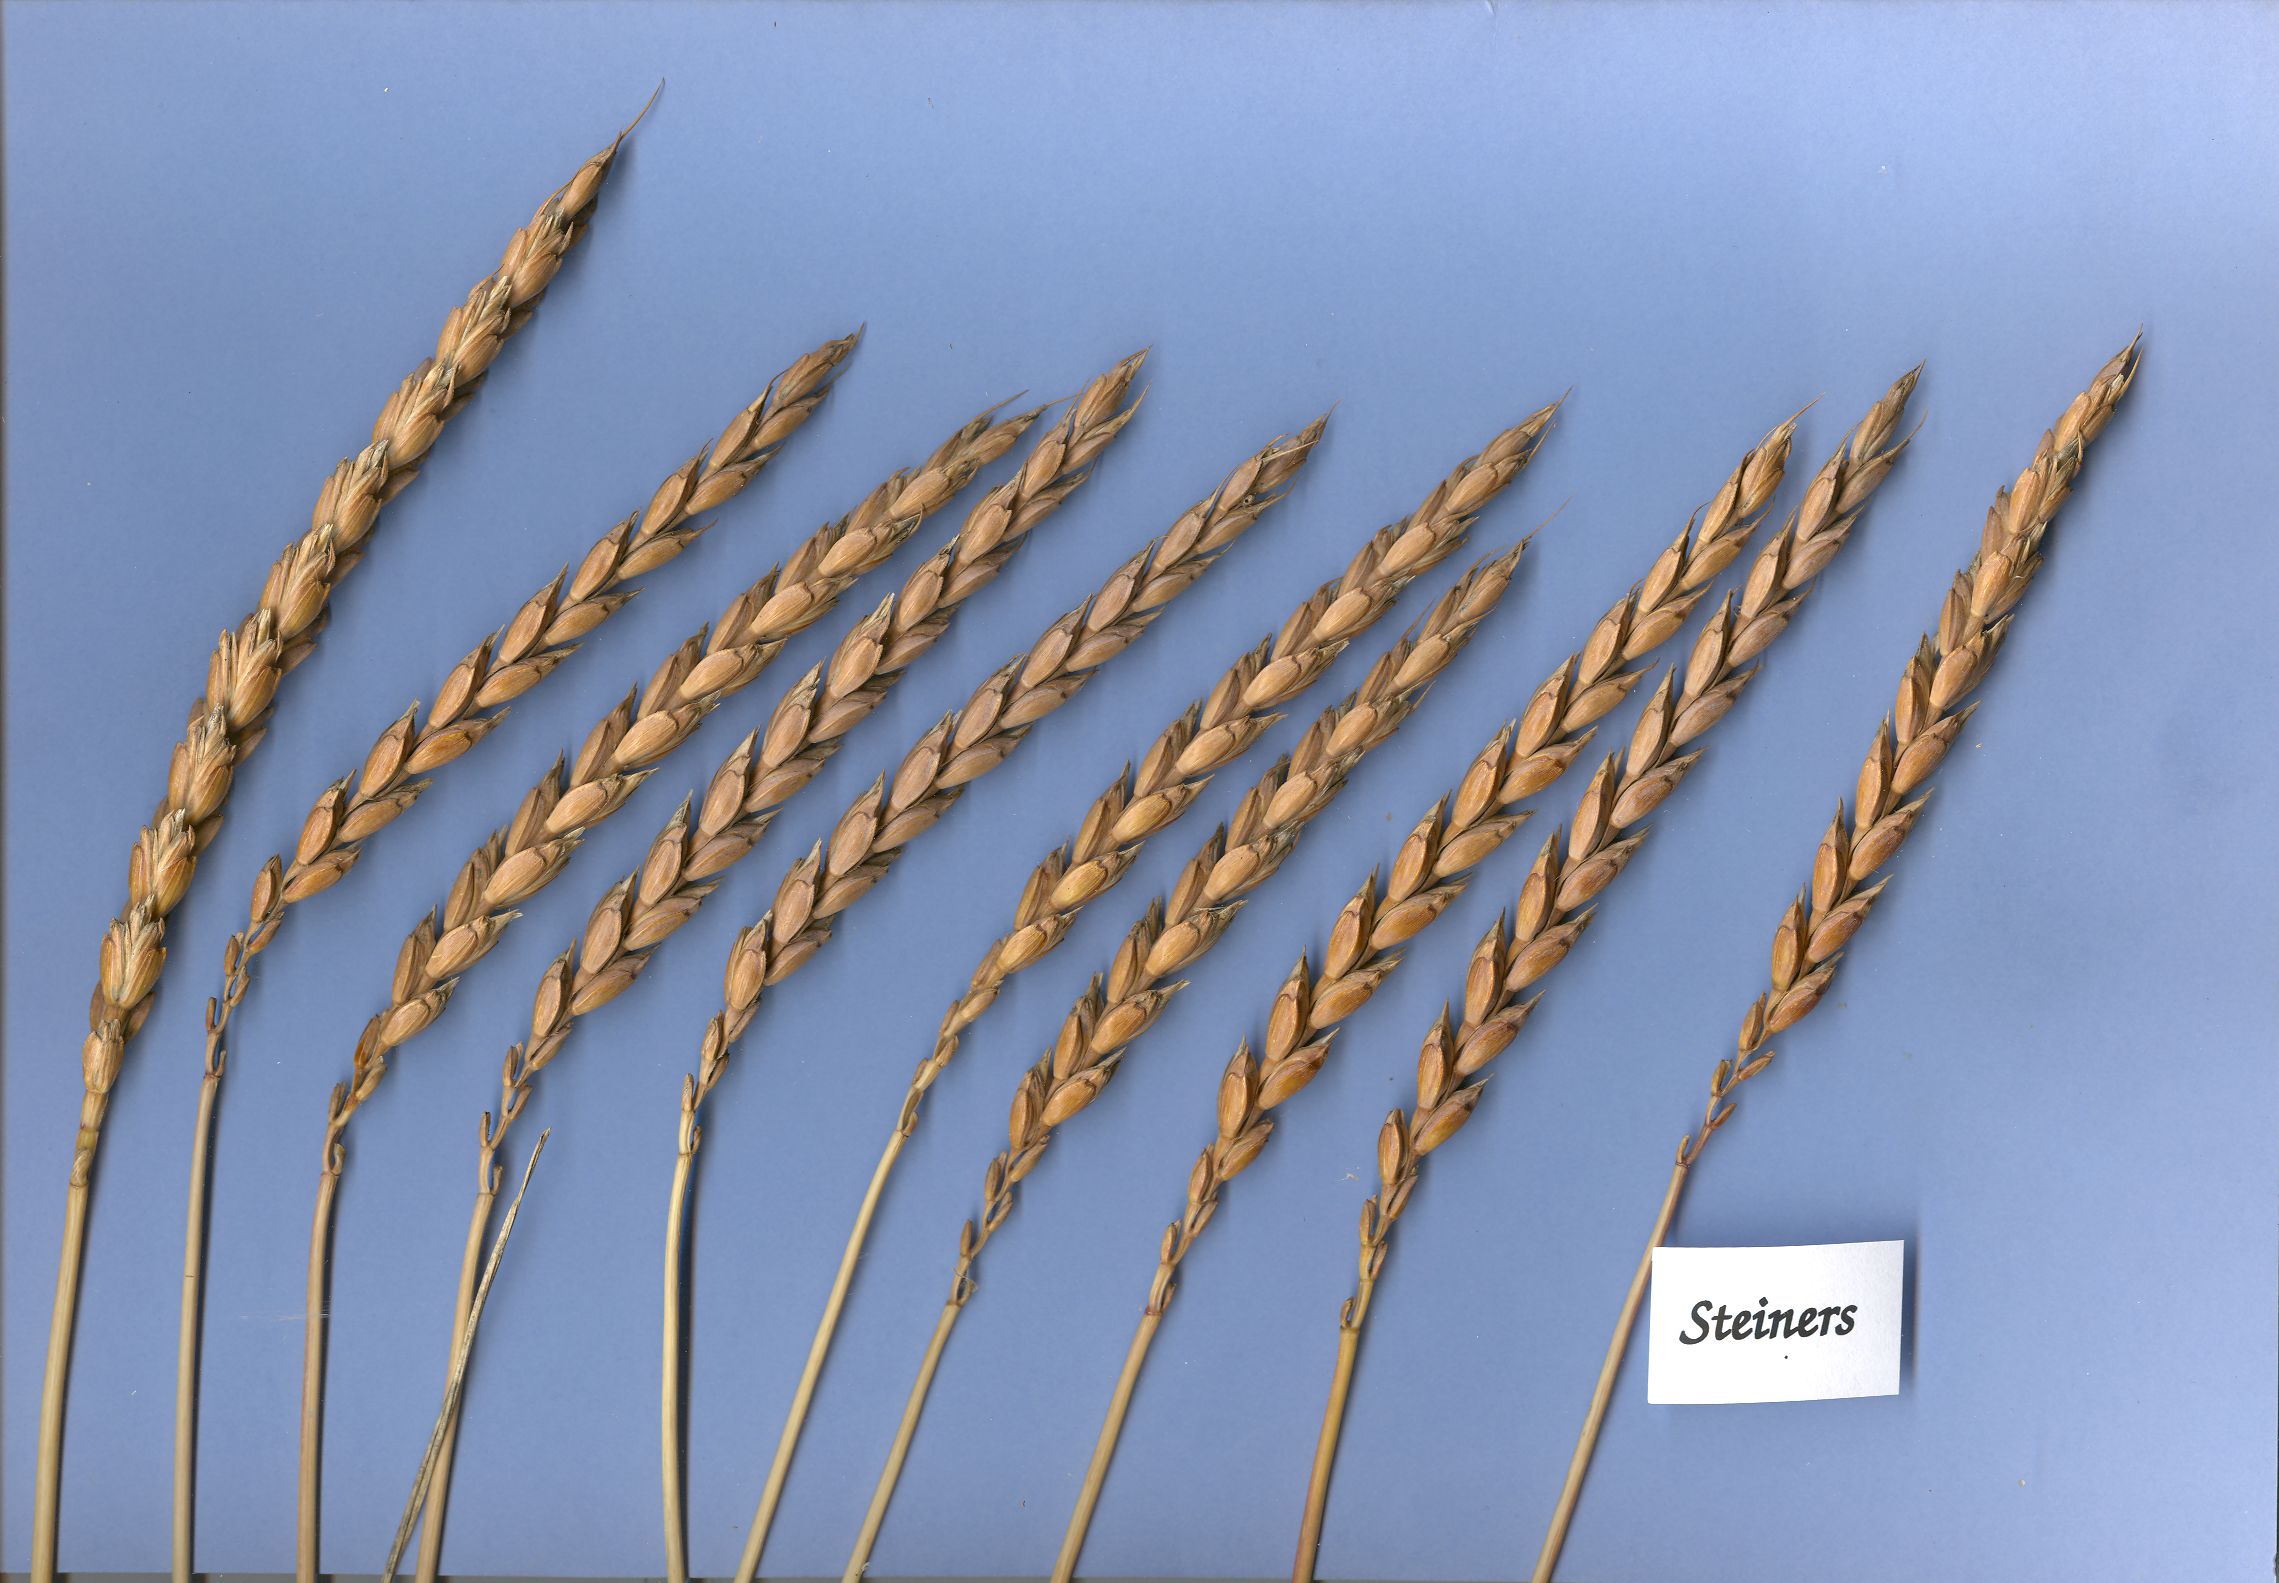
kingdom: Plantae
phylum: Tracheophyta
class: Liliopsida
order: Poales
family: Poaceae
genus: Triticum
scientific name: Triticum aestivum
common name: Common wheat
